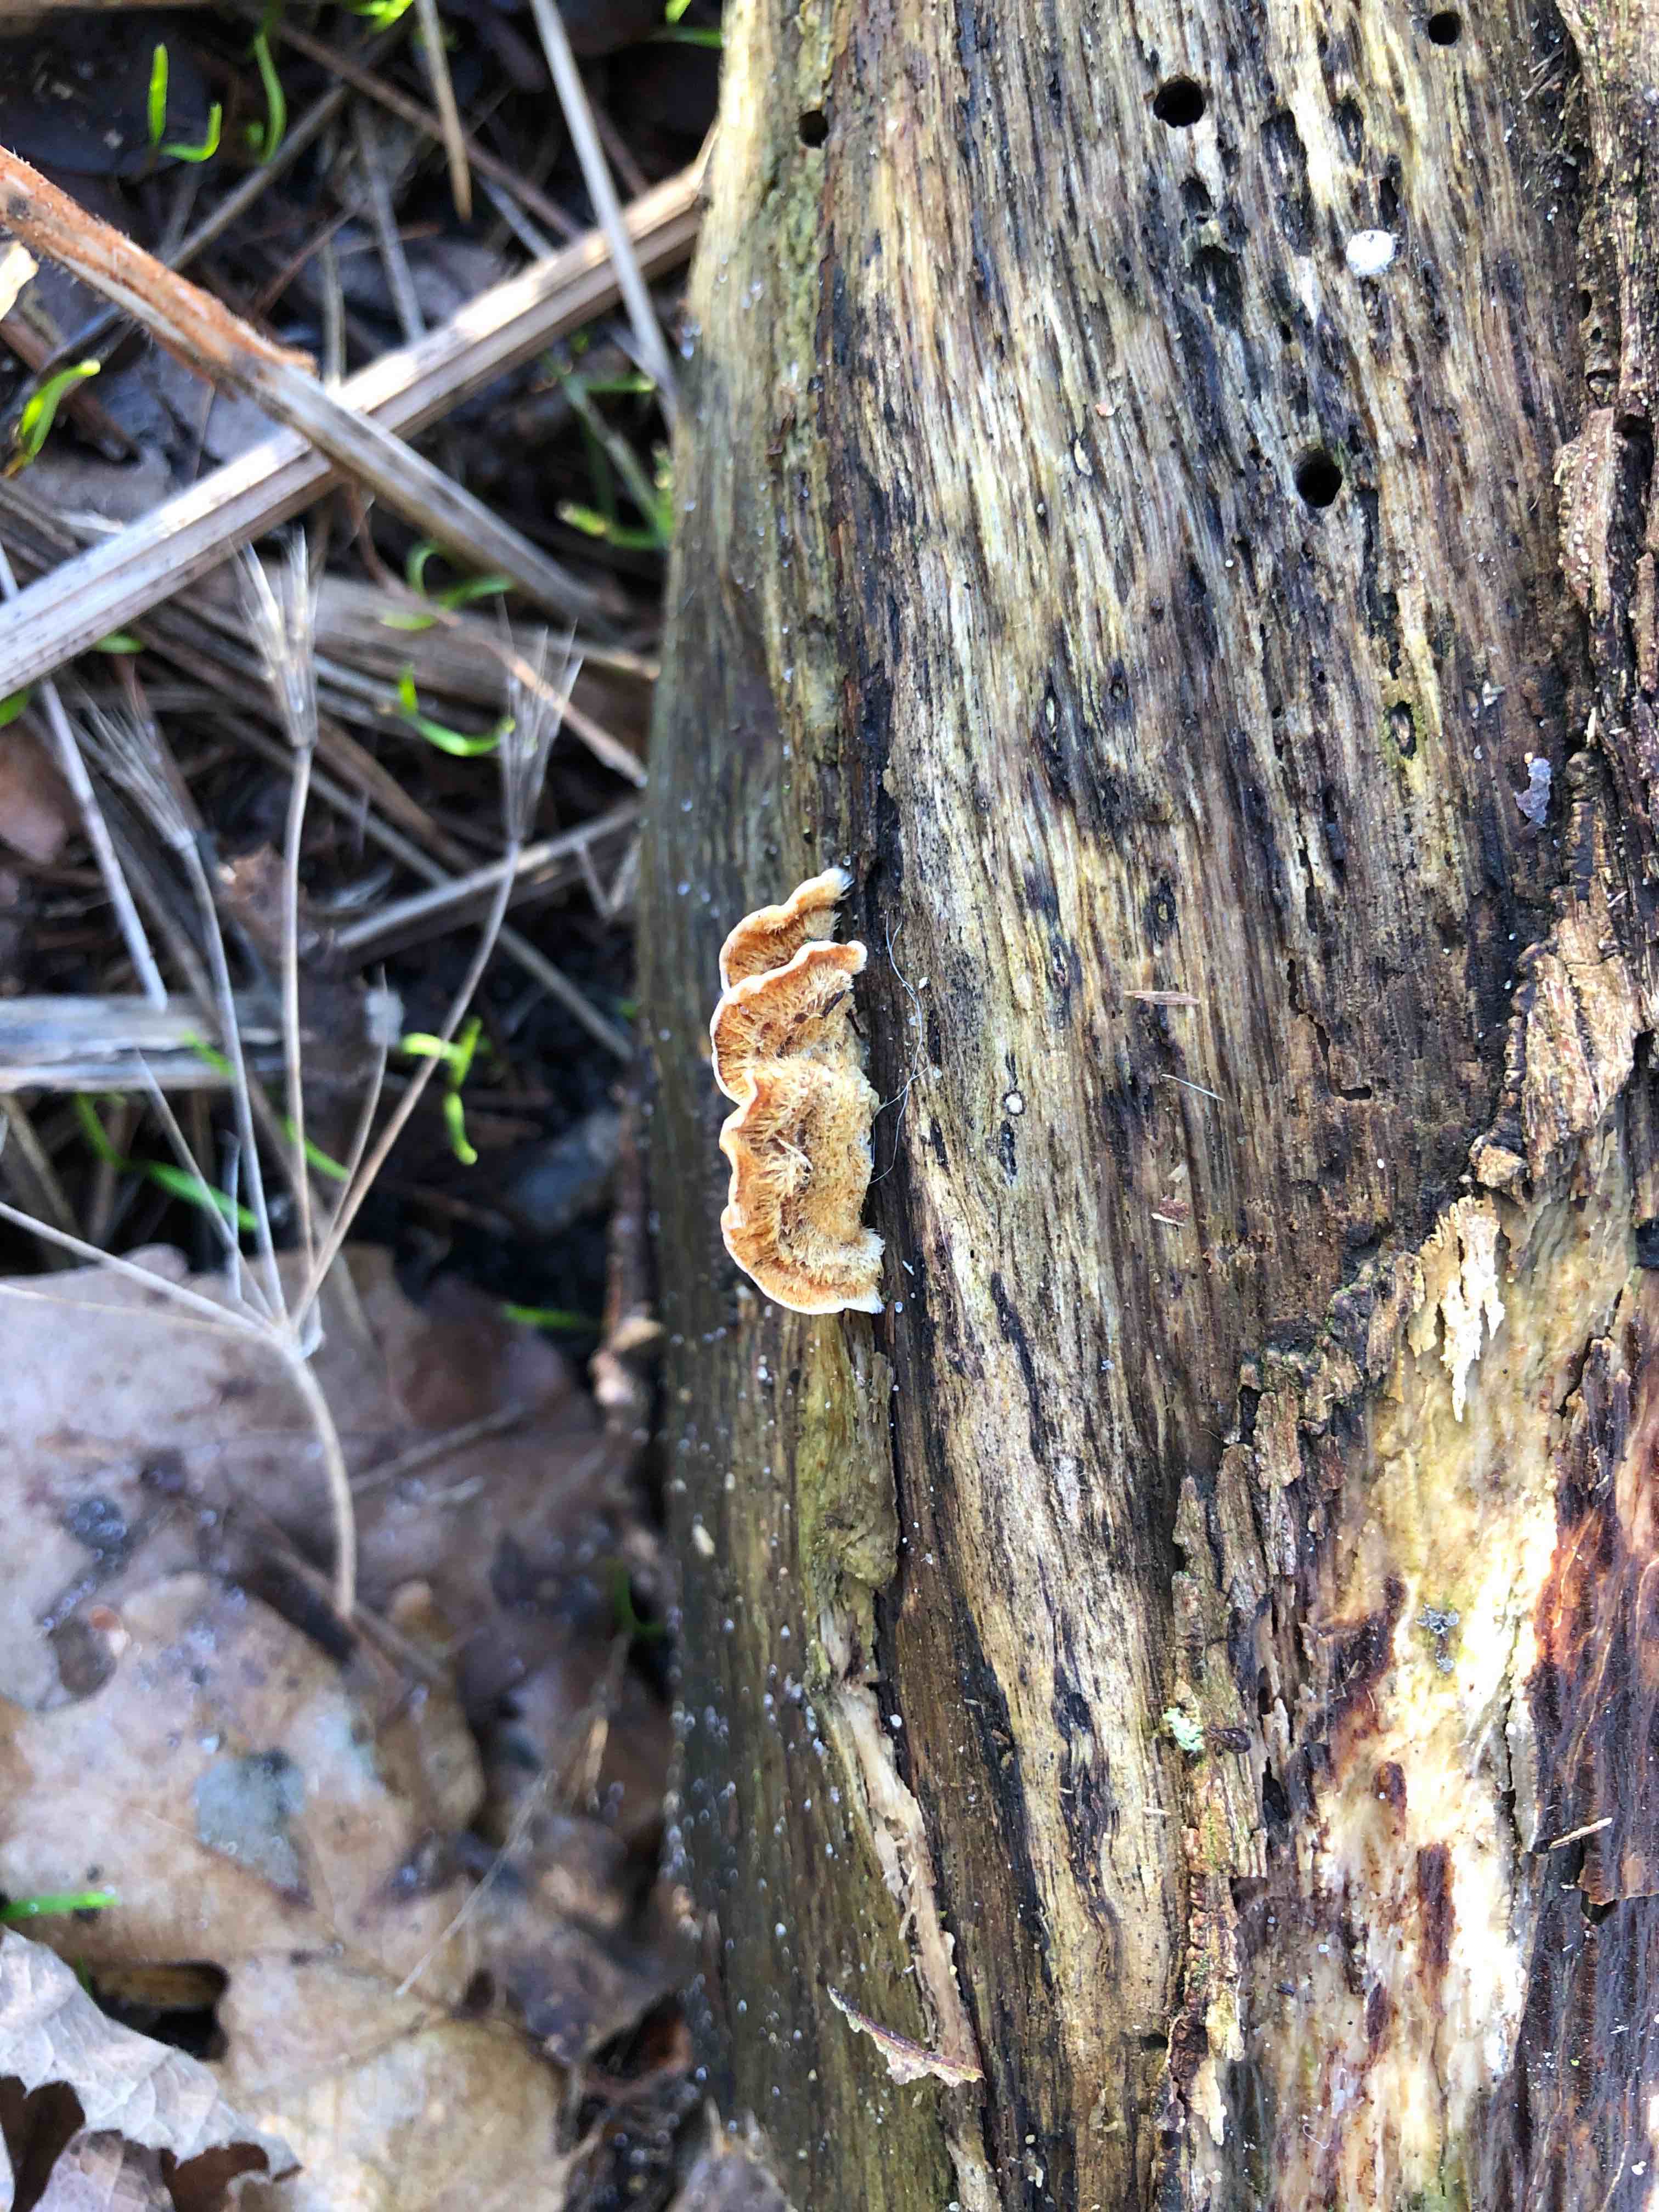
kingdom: Fungi
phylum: Basidiomycota
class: Agaricomycetes
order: Russulales
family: Stereaceae
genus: Stereum
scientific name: Stereum hirsutum
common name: håret lædersvamp
